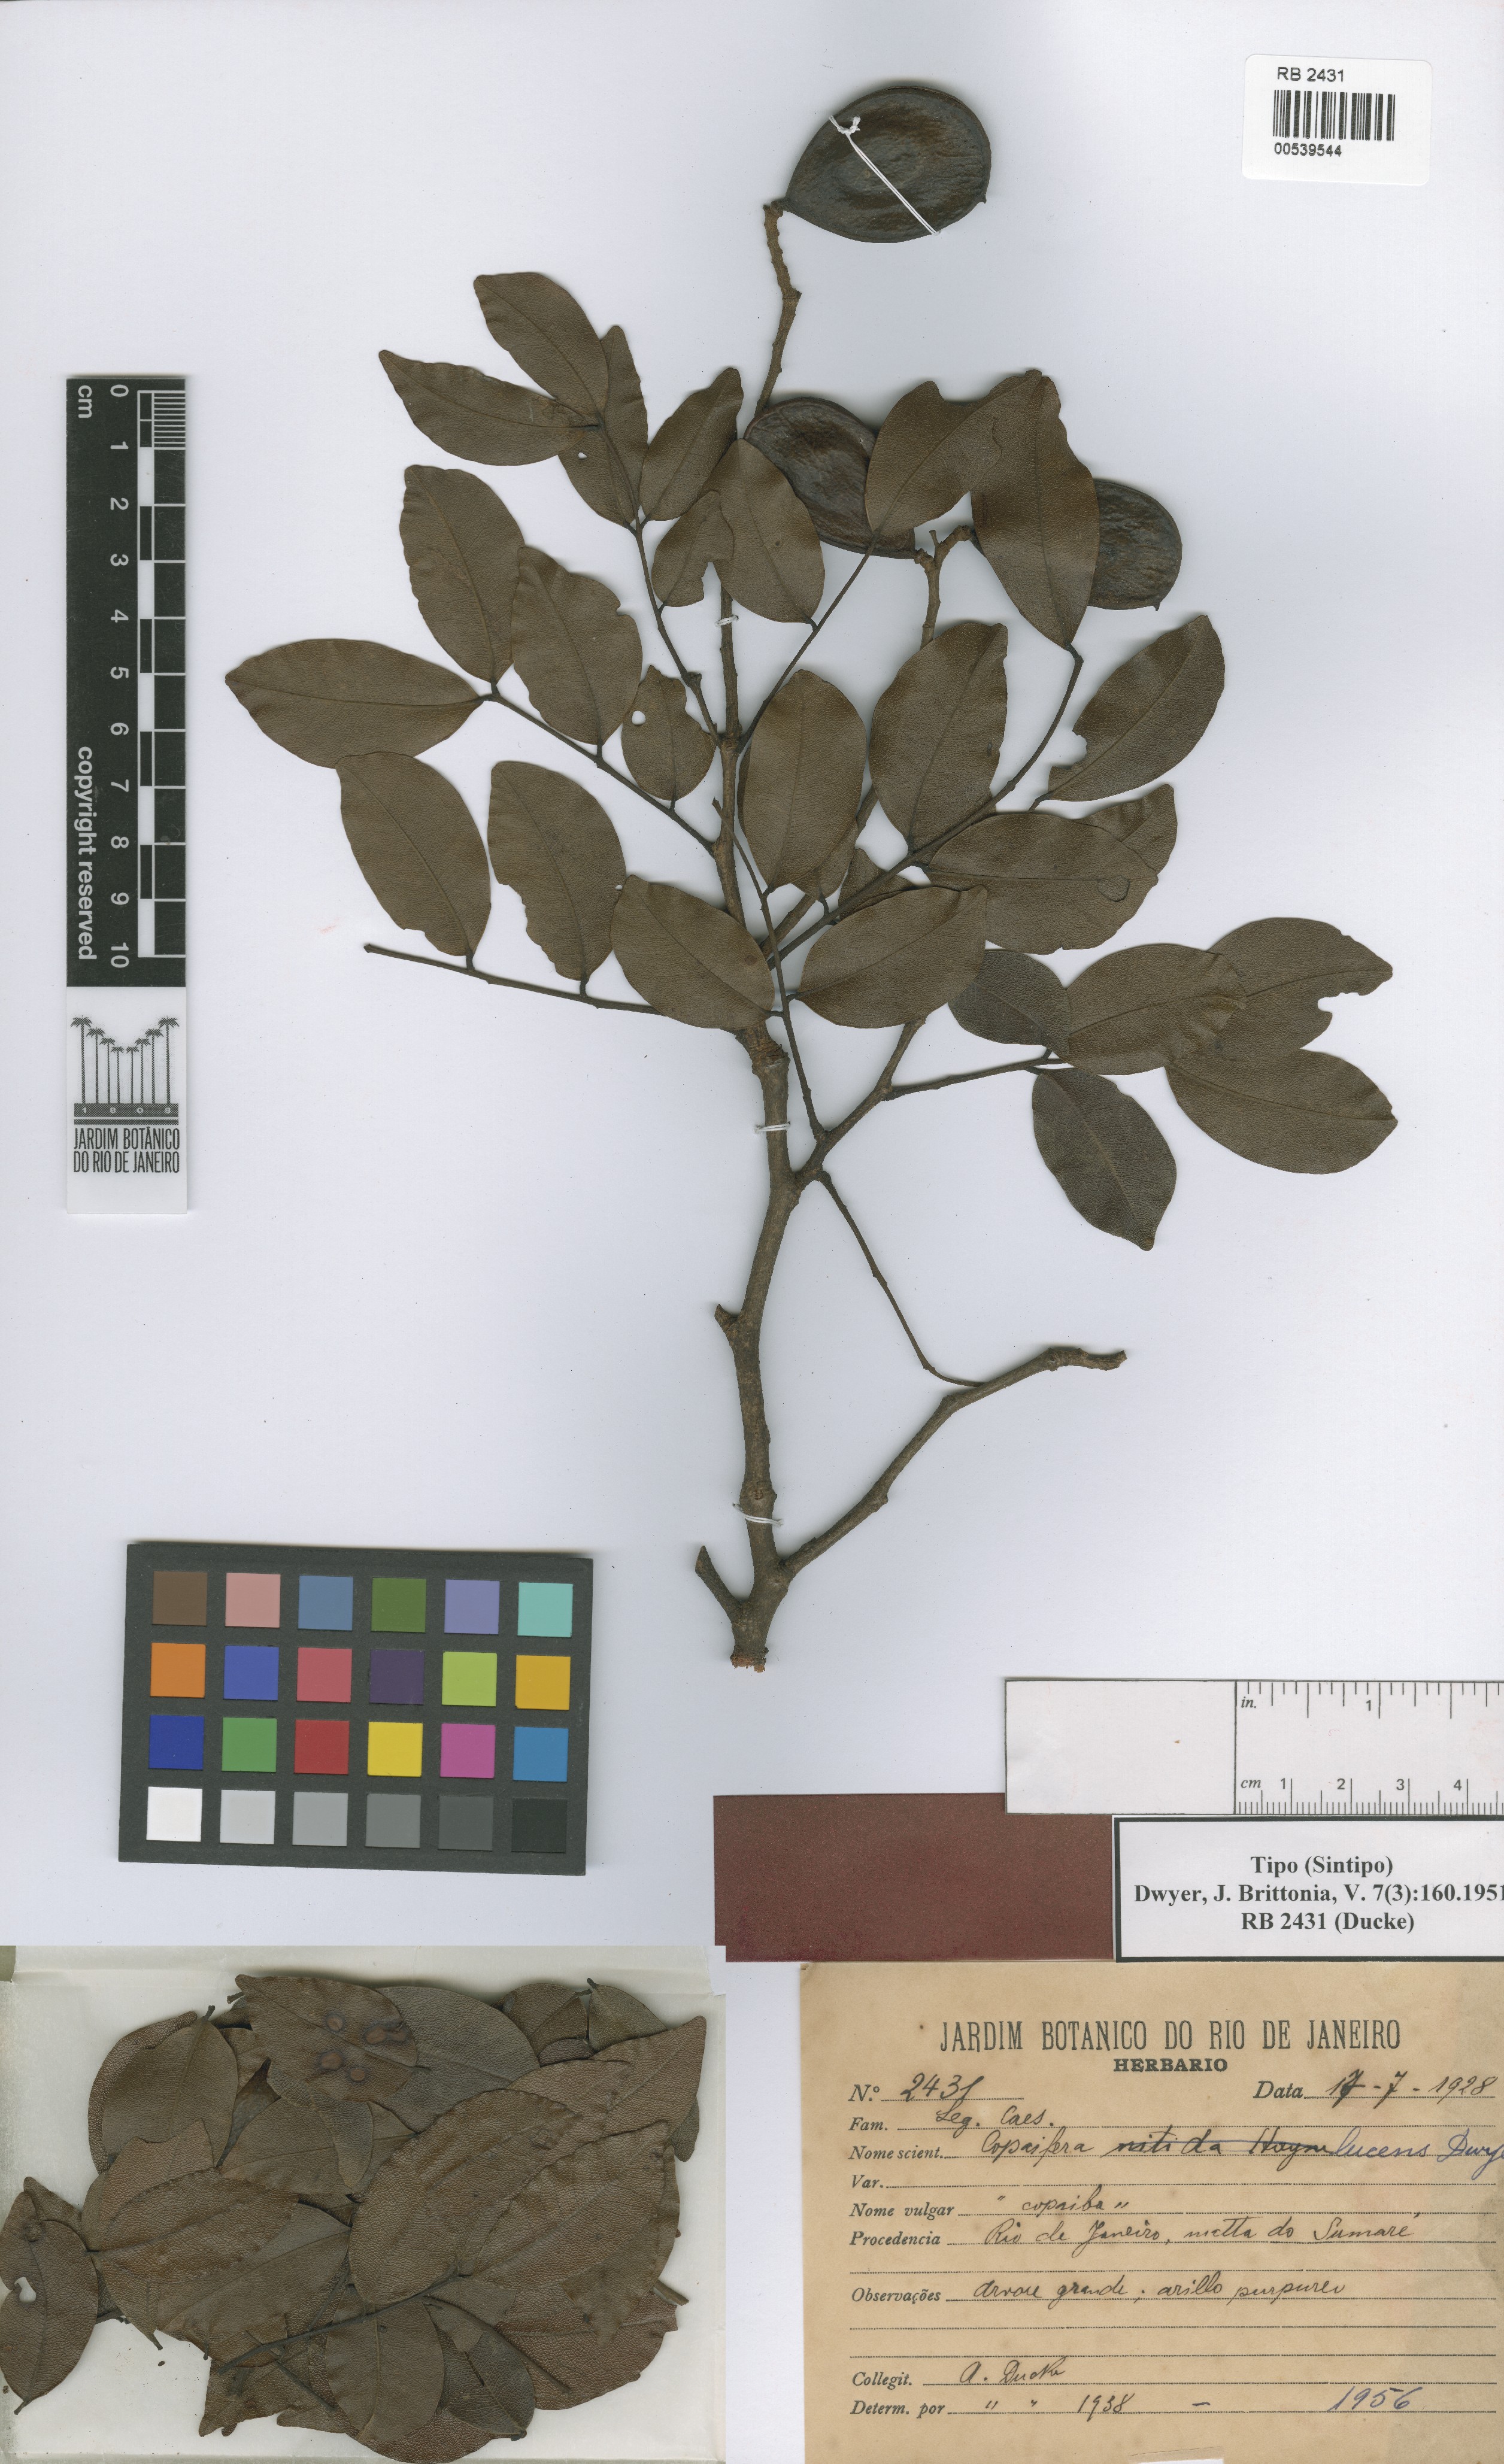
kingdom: Plantae
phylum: Tracheophyta
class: Magnoliopsida
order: Fabales
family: Fabaceae
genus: Copaifera
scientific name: Copaifera lucens
